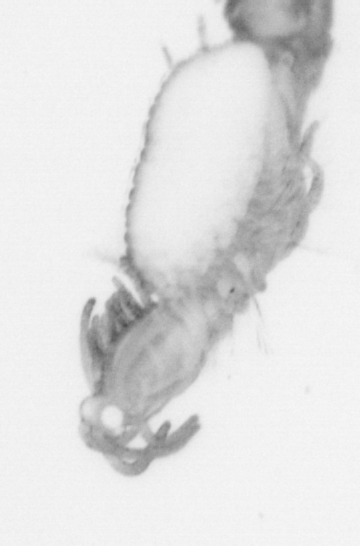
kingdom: Animalia
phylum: Annelida
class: Polychaeta
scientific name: Polychaeta
